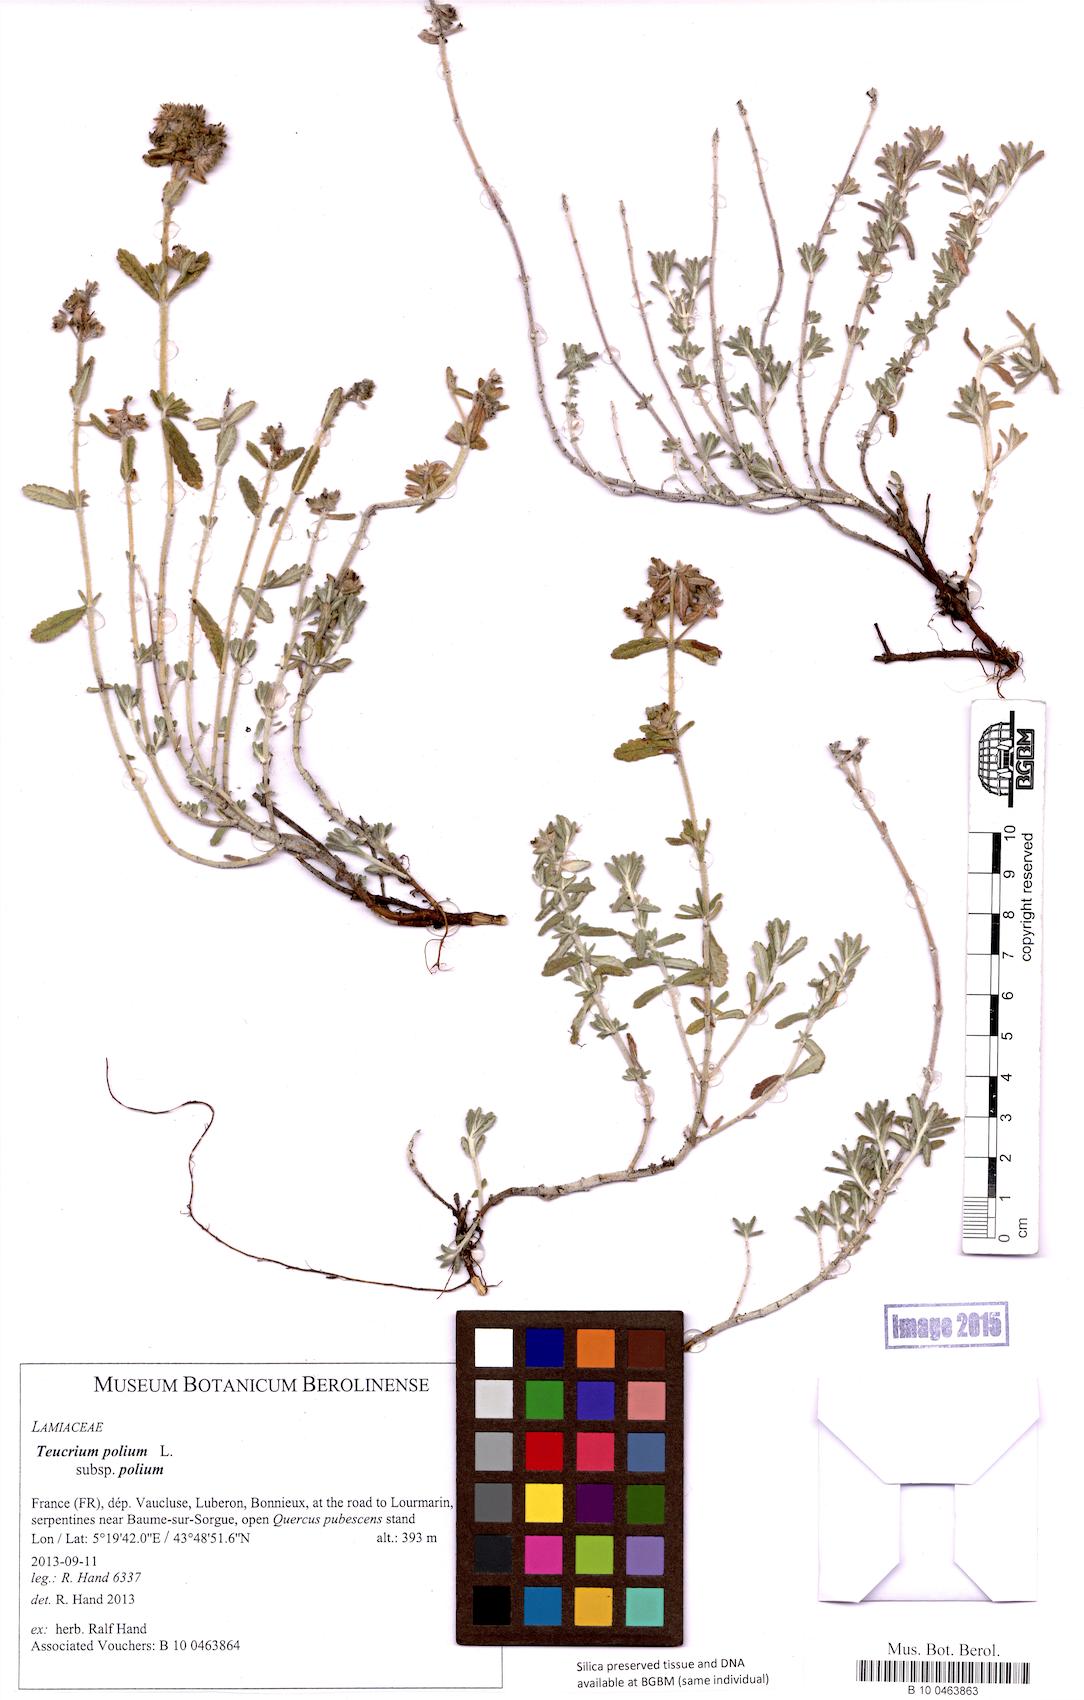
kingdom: Plantae
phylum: Tracheophyta
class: Magnoliopsida
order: Lamiales
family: Lamiaceae
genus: Teucrium
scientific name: Teucrium polium
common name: Poley
